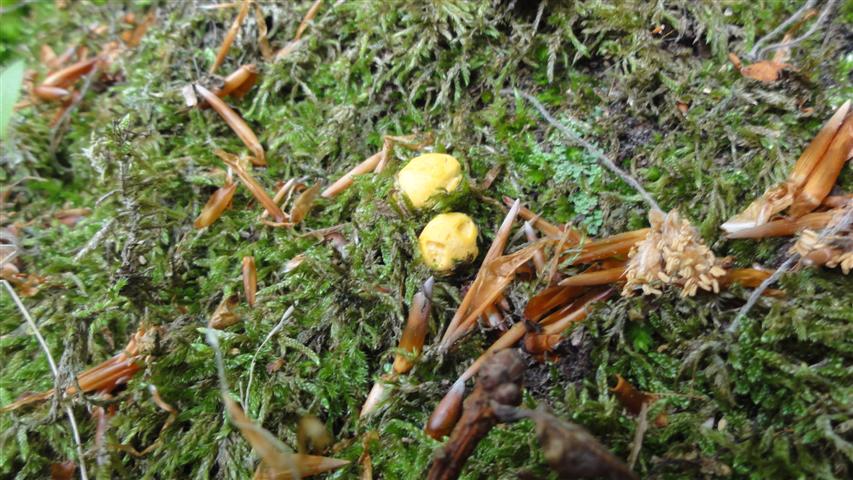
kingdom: Fungi
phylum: Basidiomycota
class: Agaricomycetes
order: Cantharellales
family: Hydnaceae
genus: Cantharellus
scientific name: Cantharellus cibarius
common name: almindelig kantarel
